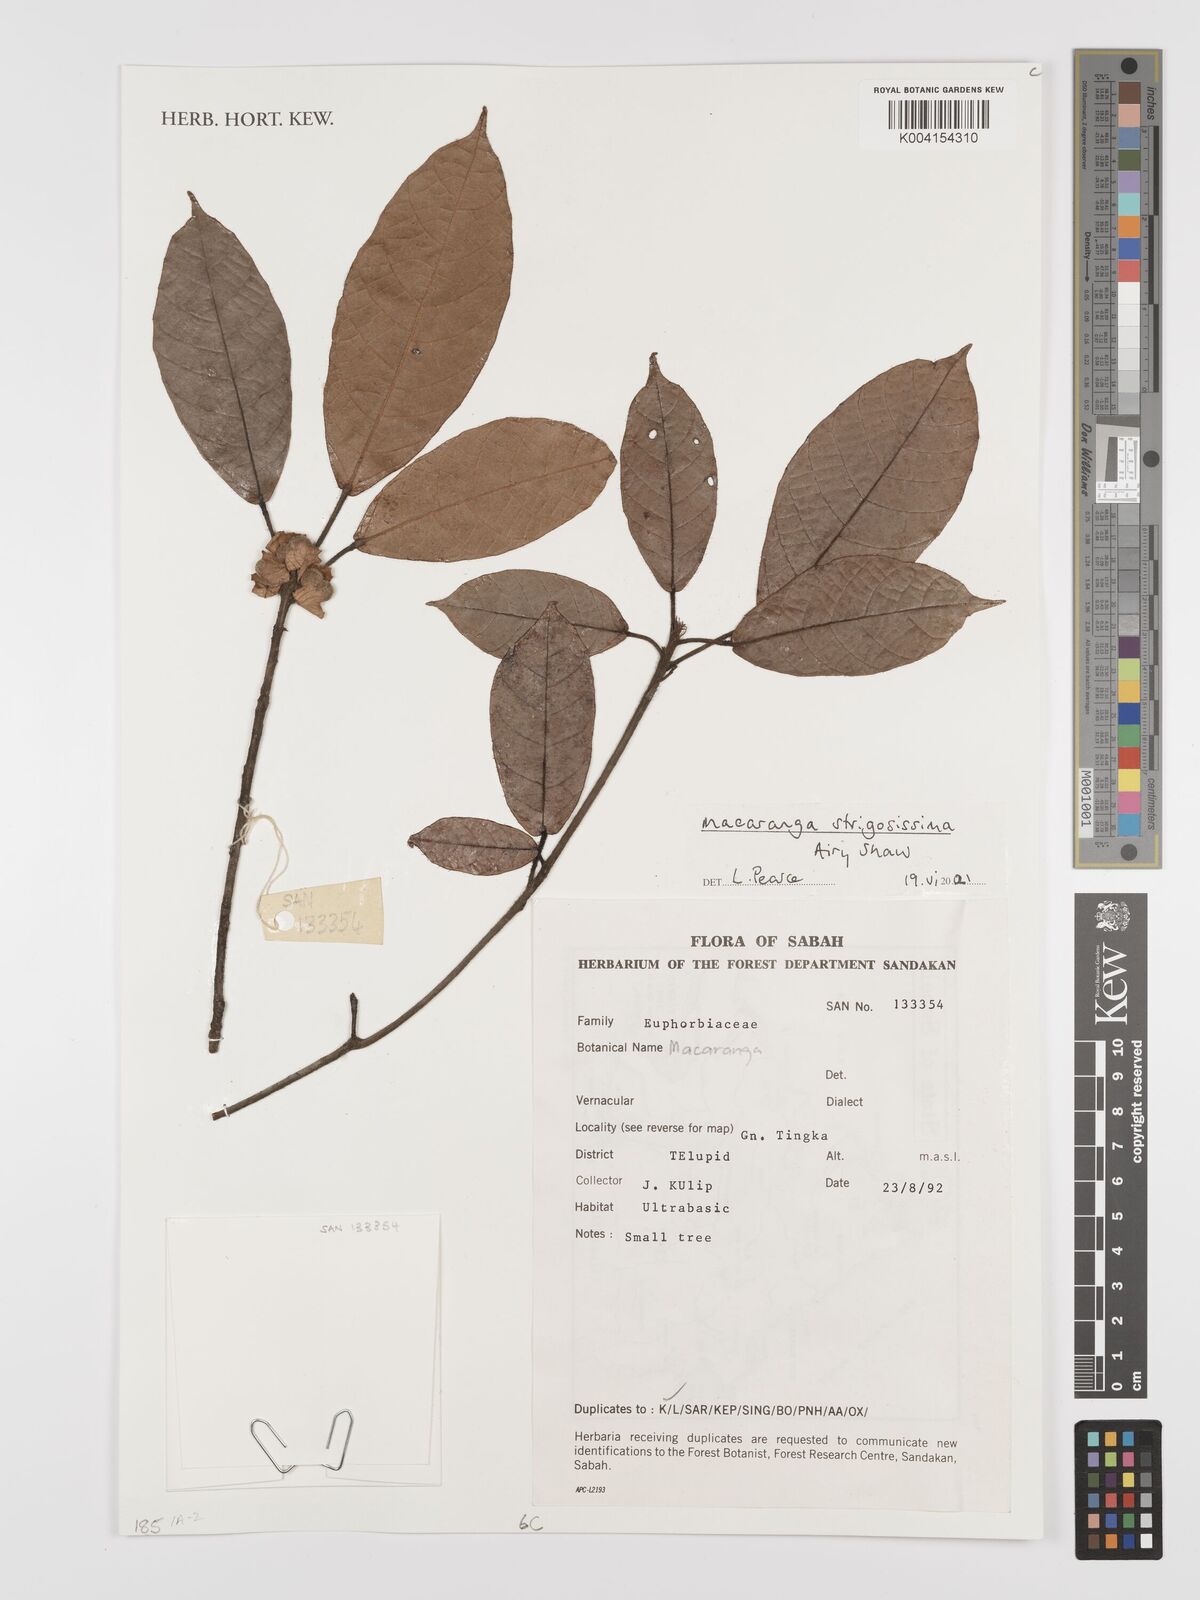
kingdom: Plantae
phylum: Tracheophyta
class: Magnoliopsida
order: Malpighiales
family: Euphorbiaceae
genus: Macaranga
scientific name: Macaranga strigosissima
